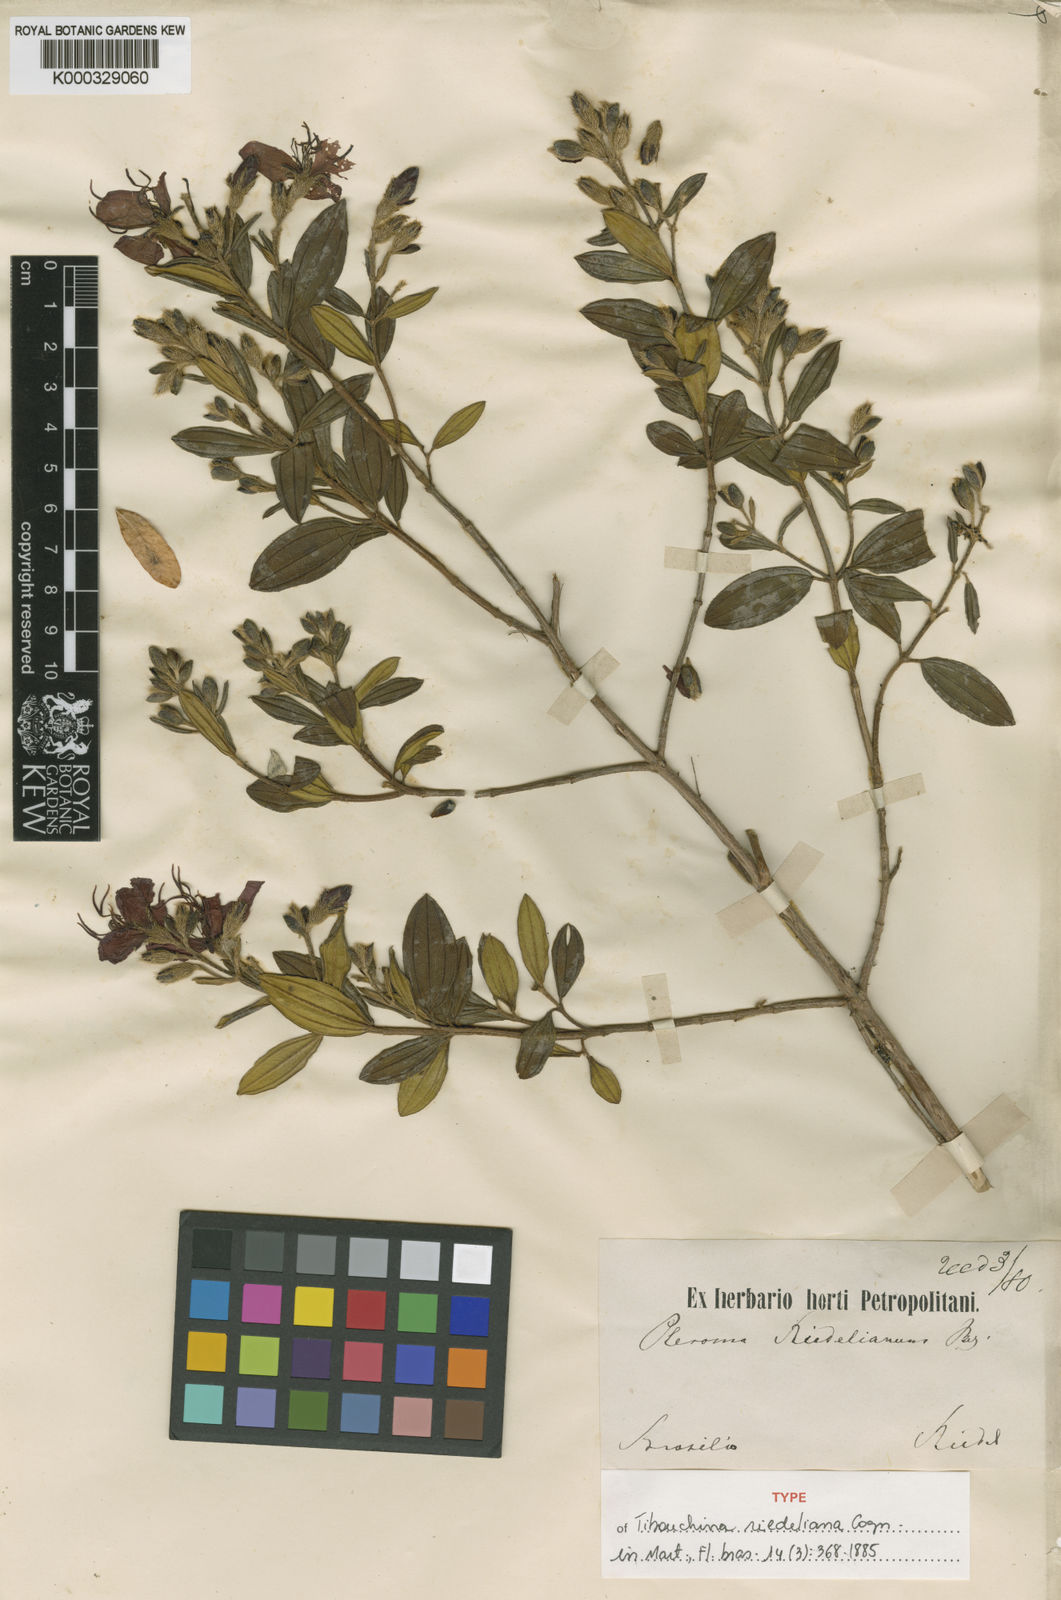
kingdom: Plantae
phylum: Tracheophyta
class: Magnoliopsida
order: Myrtales
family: Melastomataceae
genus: Pleroma
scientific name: Pleroma riedelianum
